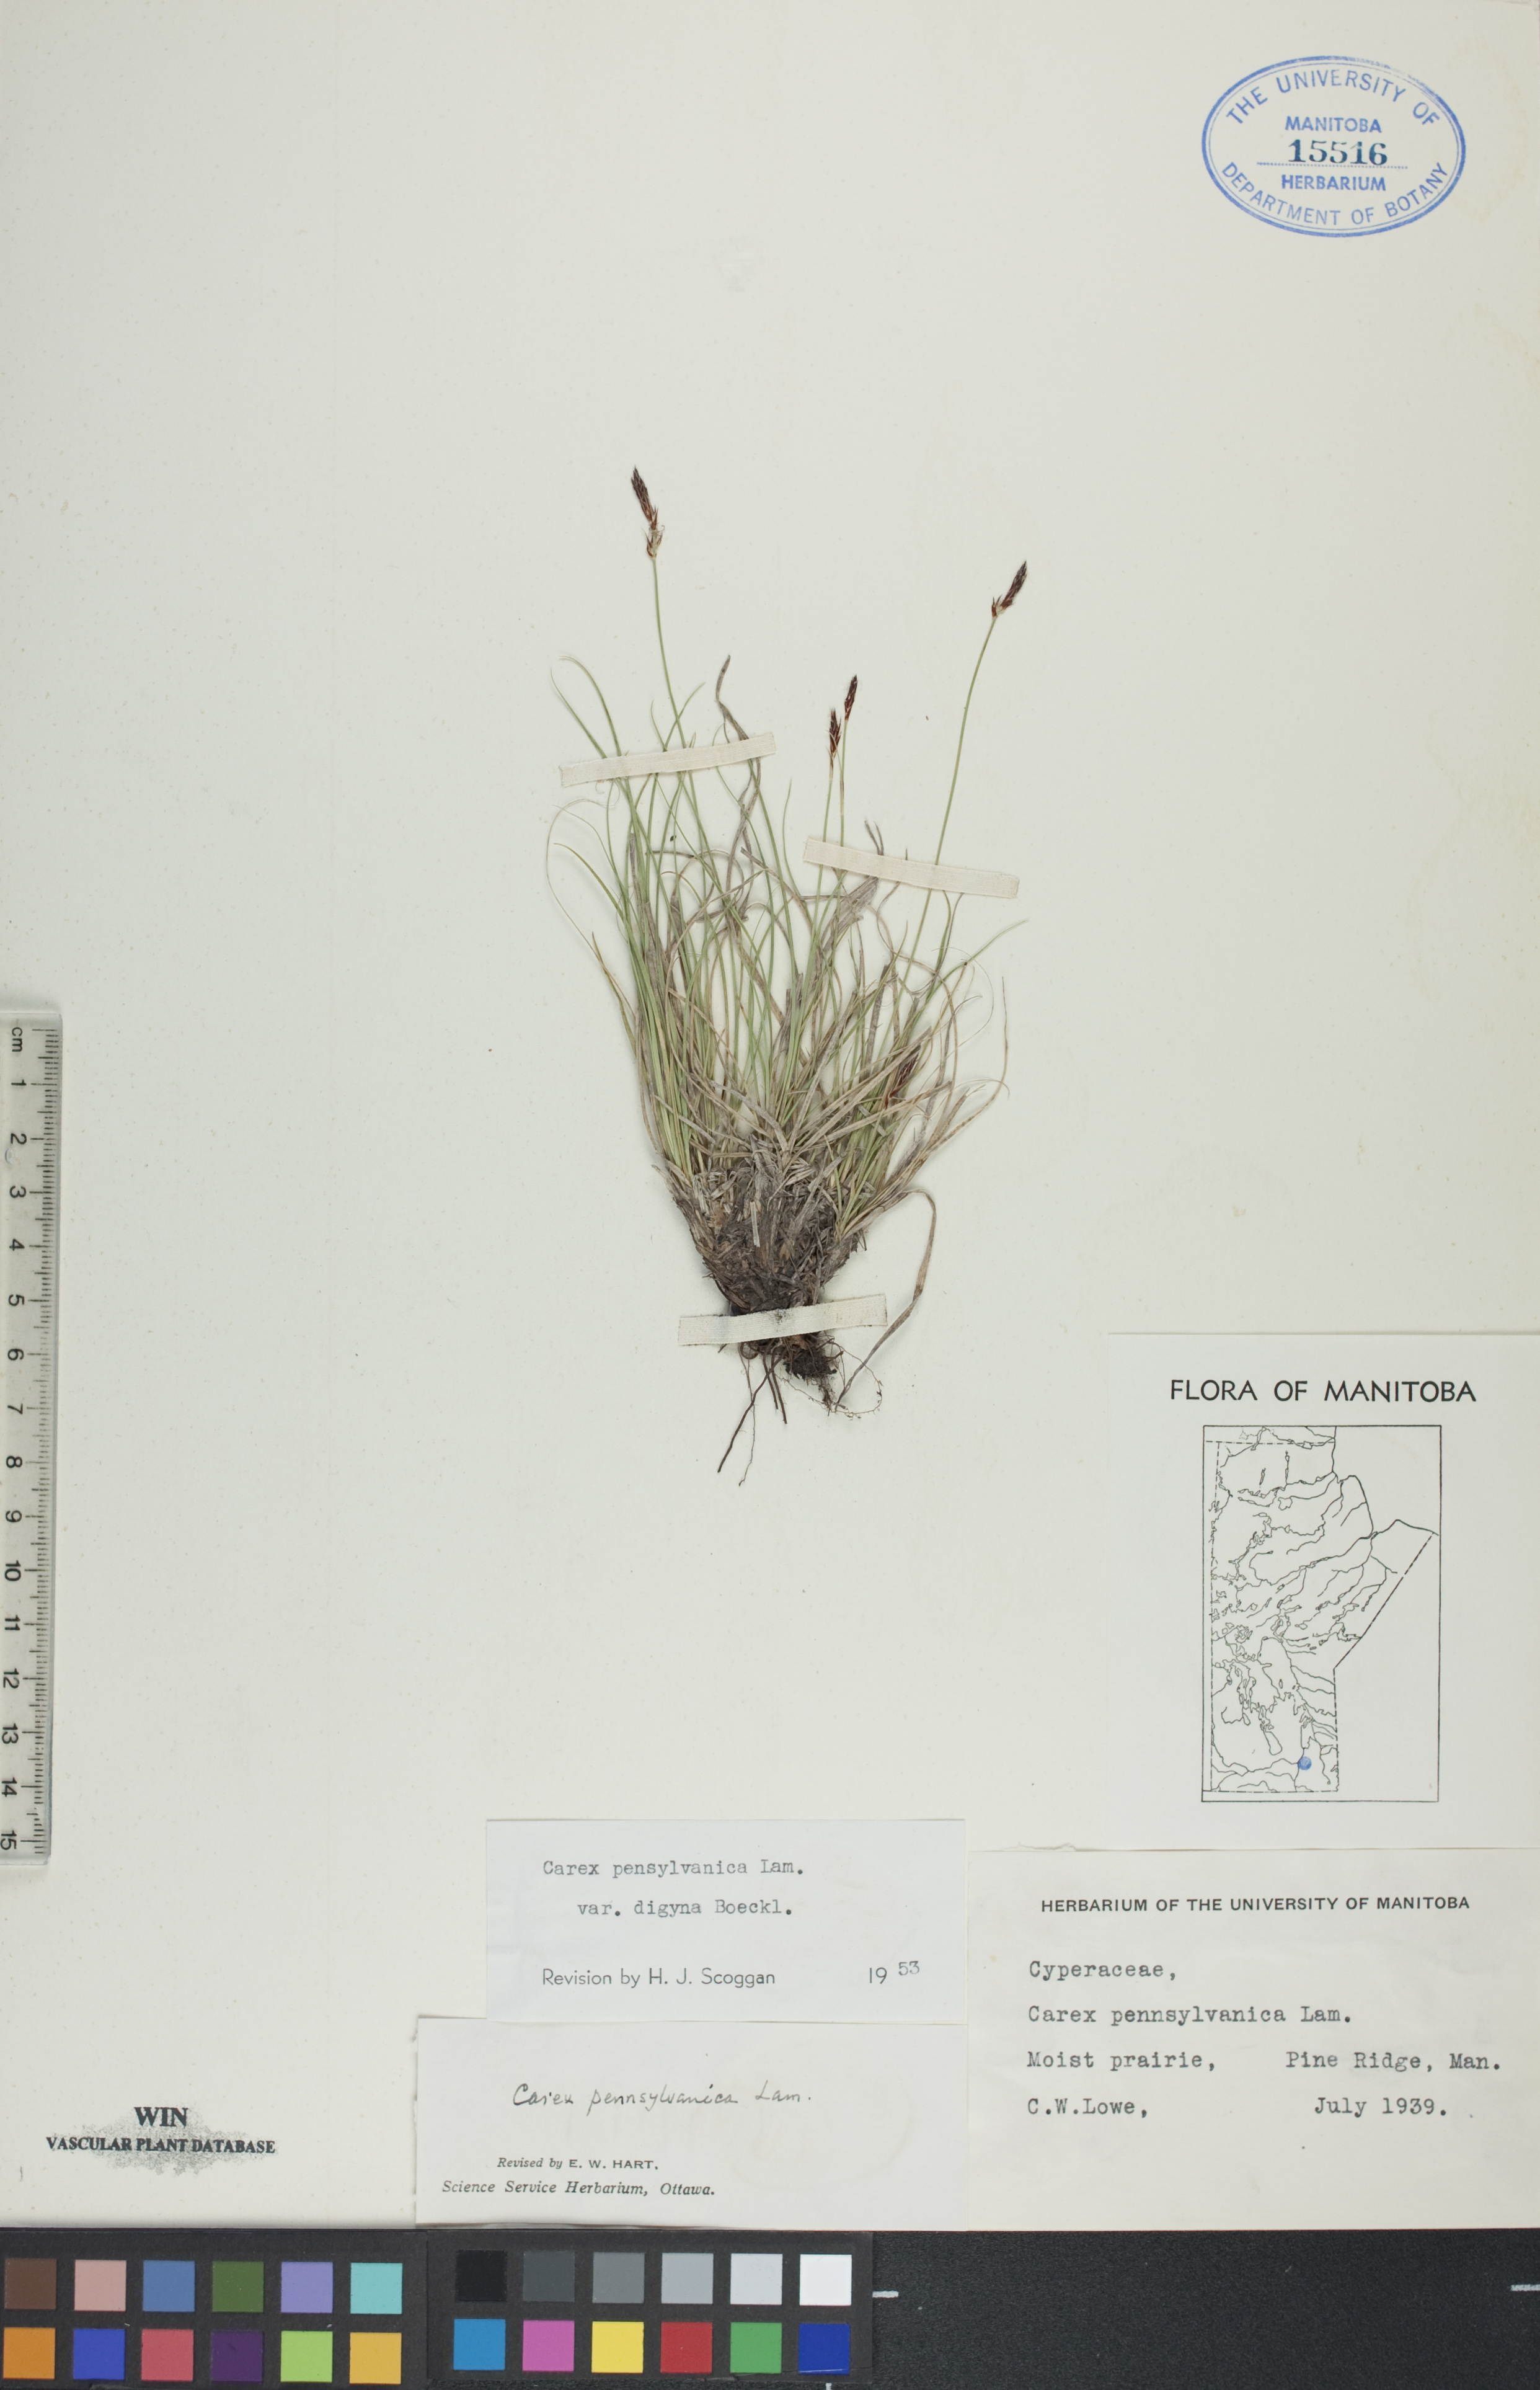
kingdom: Plantae
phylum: Tracheophyta
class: Liliopsida
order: Poales
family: Cyperaceae
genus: Carex
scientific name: Carex pensylvanica
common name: Common oak sedge
